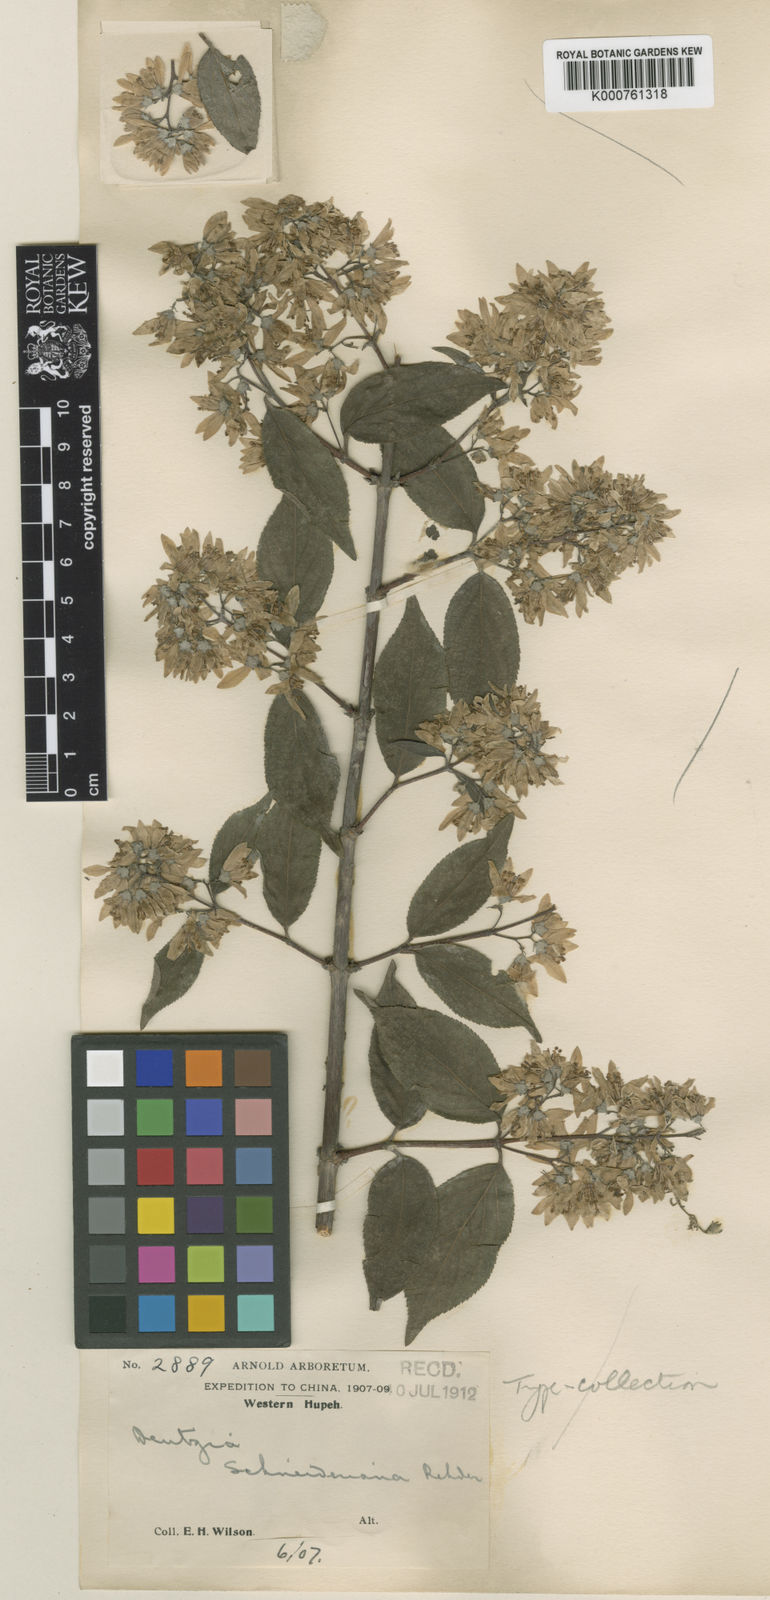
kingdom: Plantae
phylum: Tracheophyta
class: Magnoliopsida
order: Cornales
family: Hydrangeaceae
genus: Deutzia
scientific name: Deutzia schneideriana
